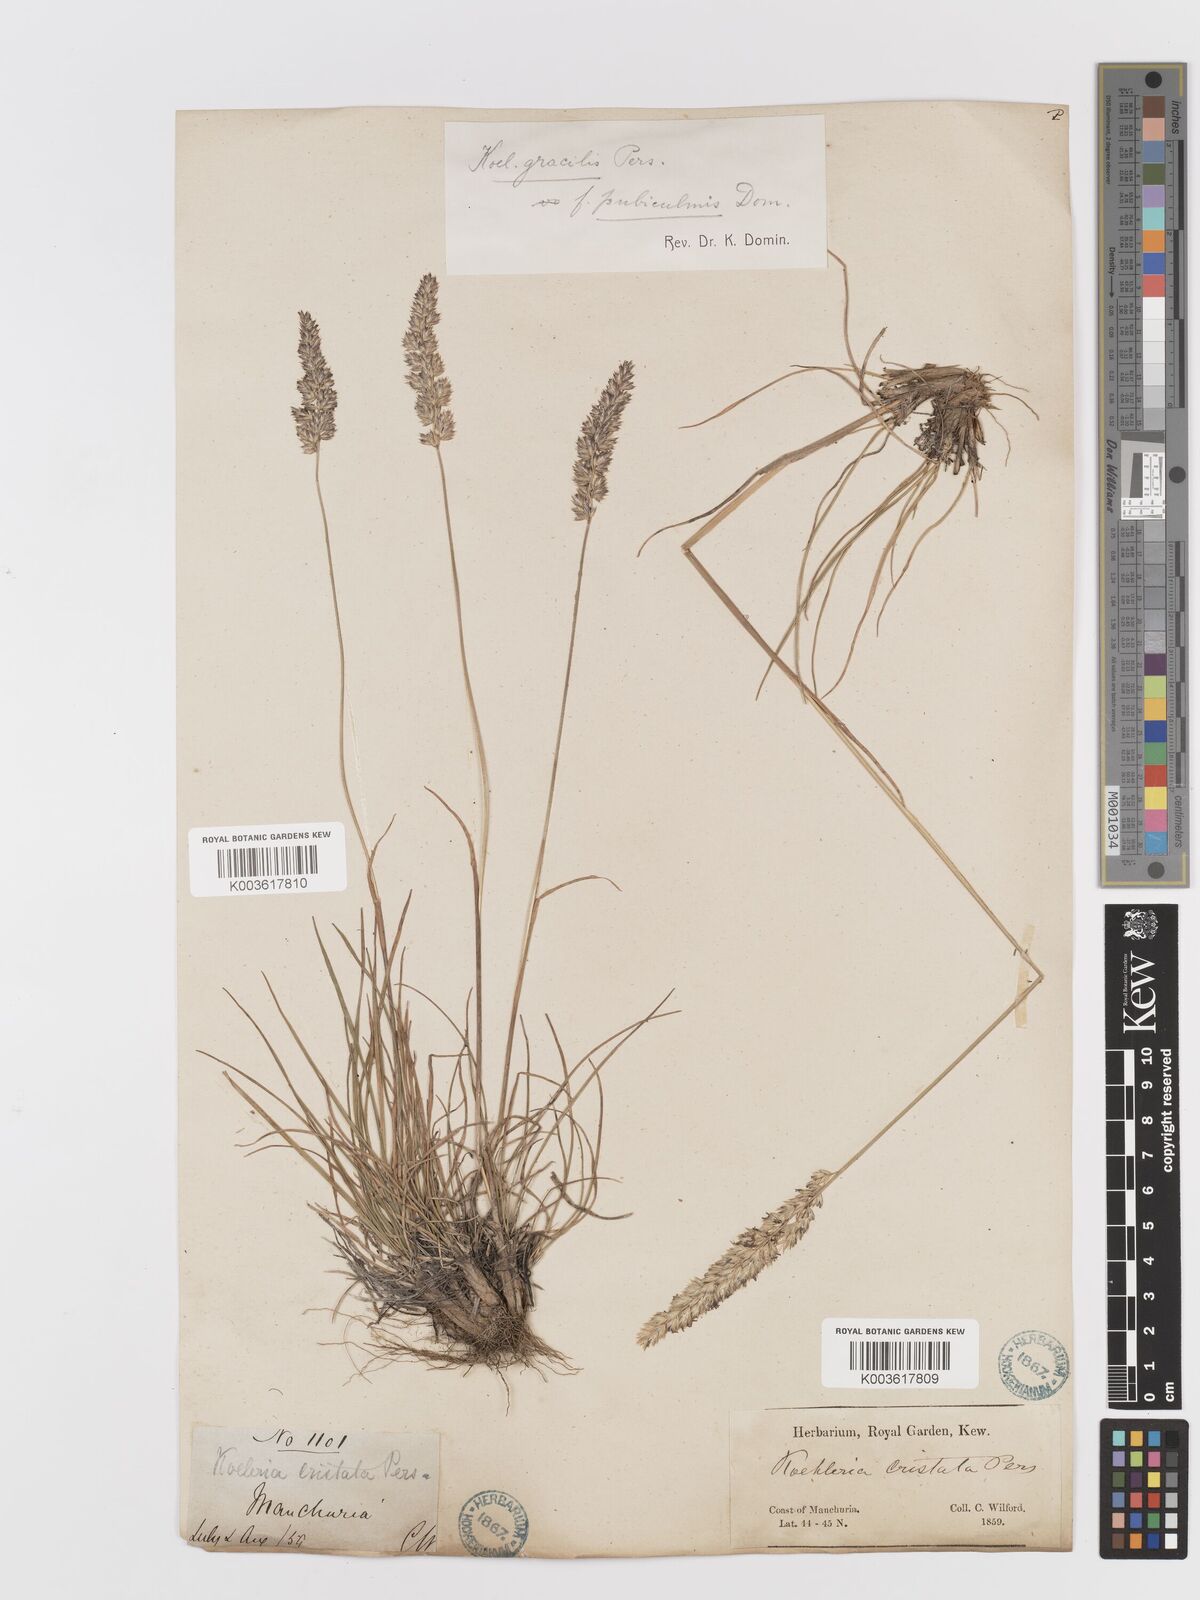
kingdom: Plantae
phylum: Tracheophyta
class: Liliopsida
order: Poales
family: Poaceae
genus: Koeleria
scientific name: Koeleria macrantha
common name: Crested hair-grass
